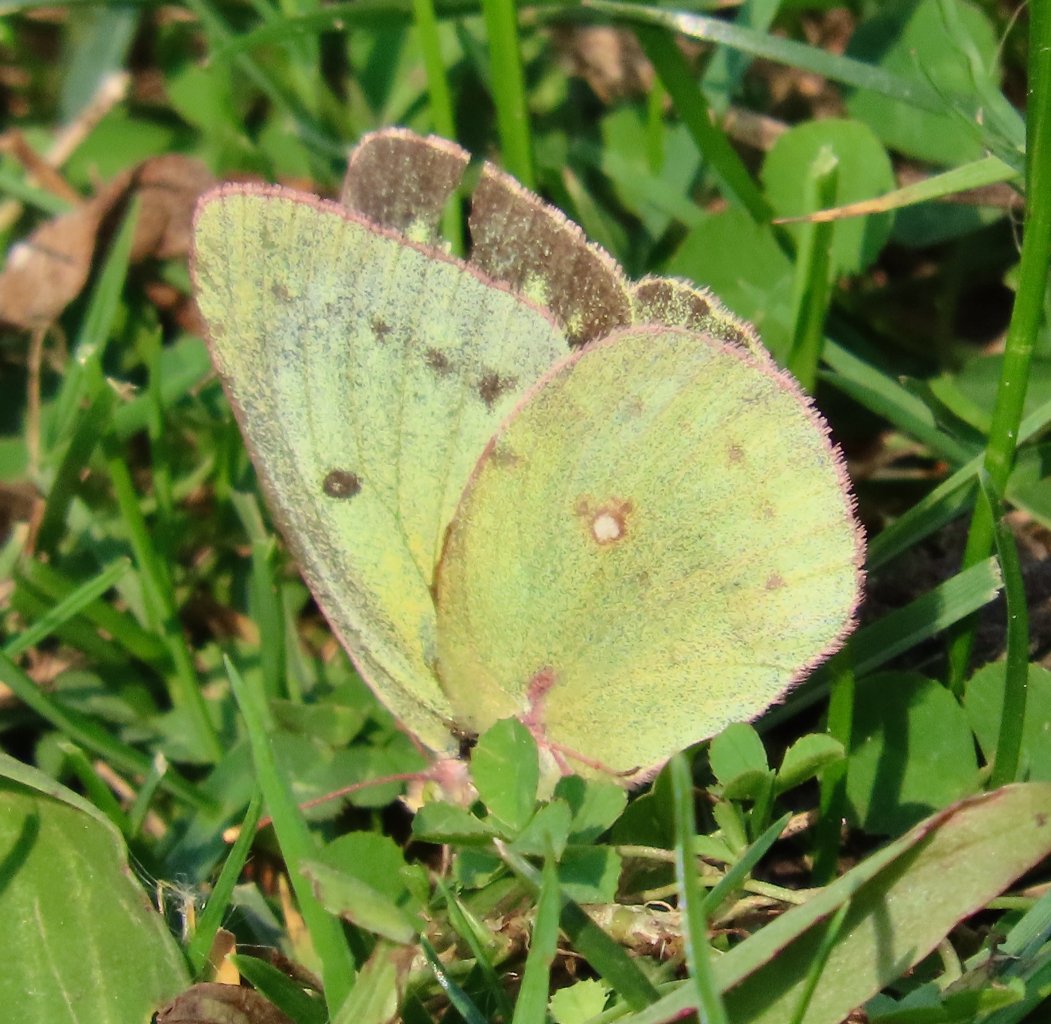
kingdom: Animalia
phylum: Arthropoda
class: Insecta
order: Lepidoptera
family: Pieridae
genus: Colias
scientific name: Colias philodice
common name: Clouded Sulphur
